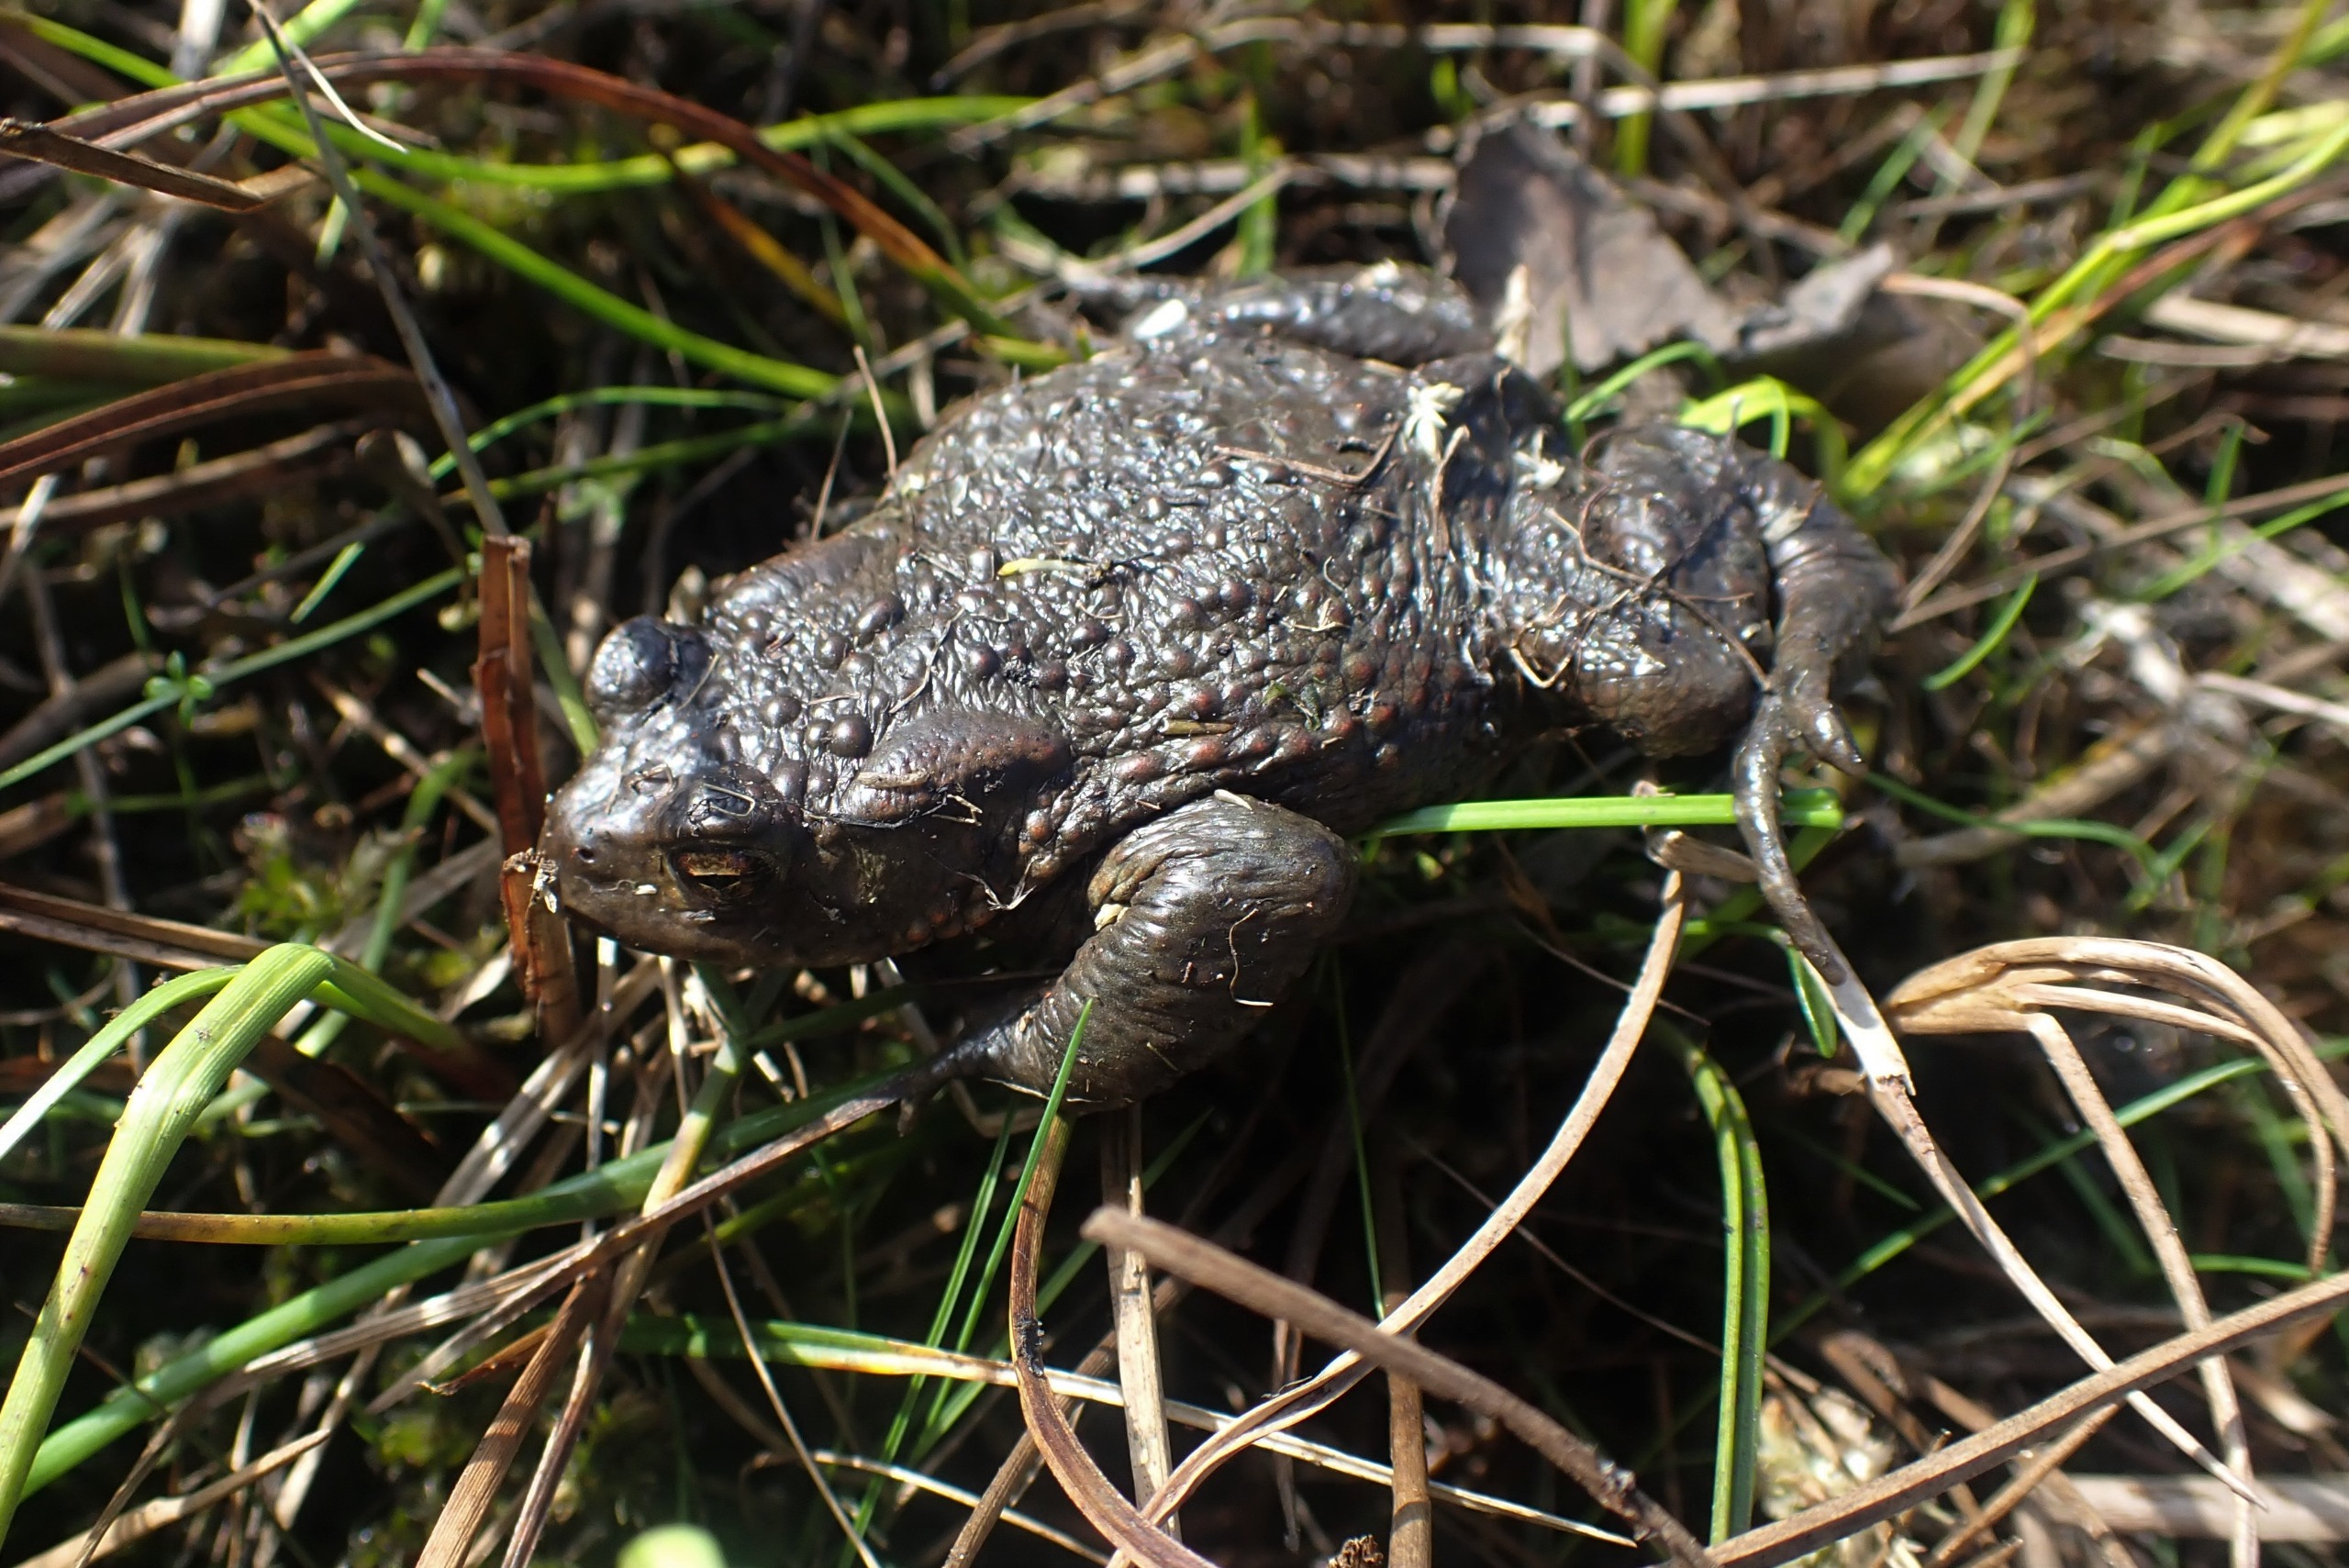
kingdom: Animalia
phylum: Chordata
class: Amphibia
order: Anura
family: Bufonidae
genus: Bufo
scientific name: Bufo bufo
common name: Skrubtudse
